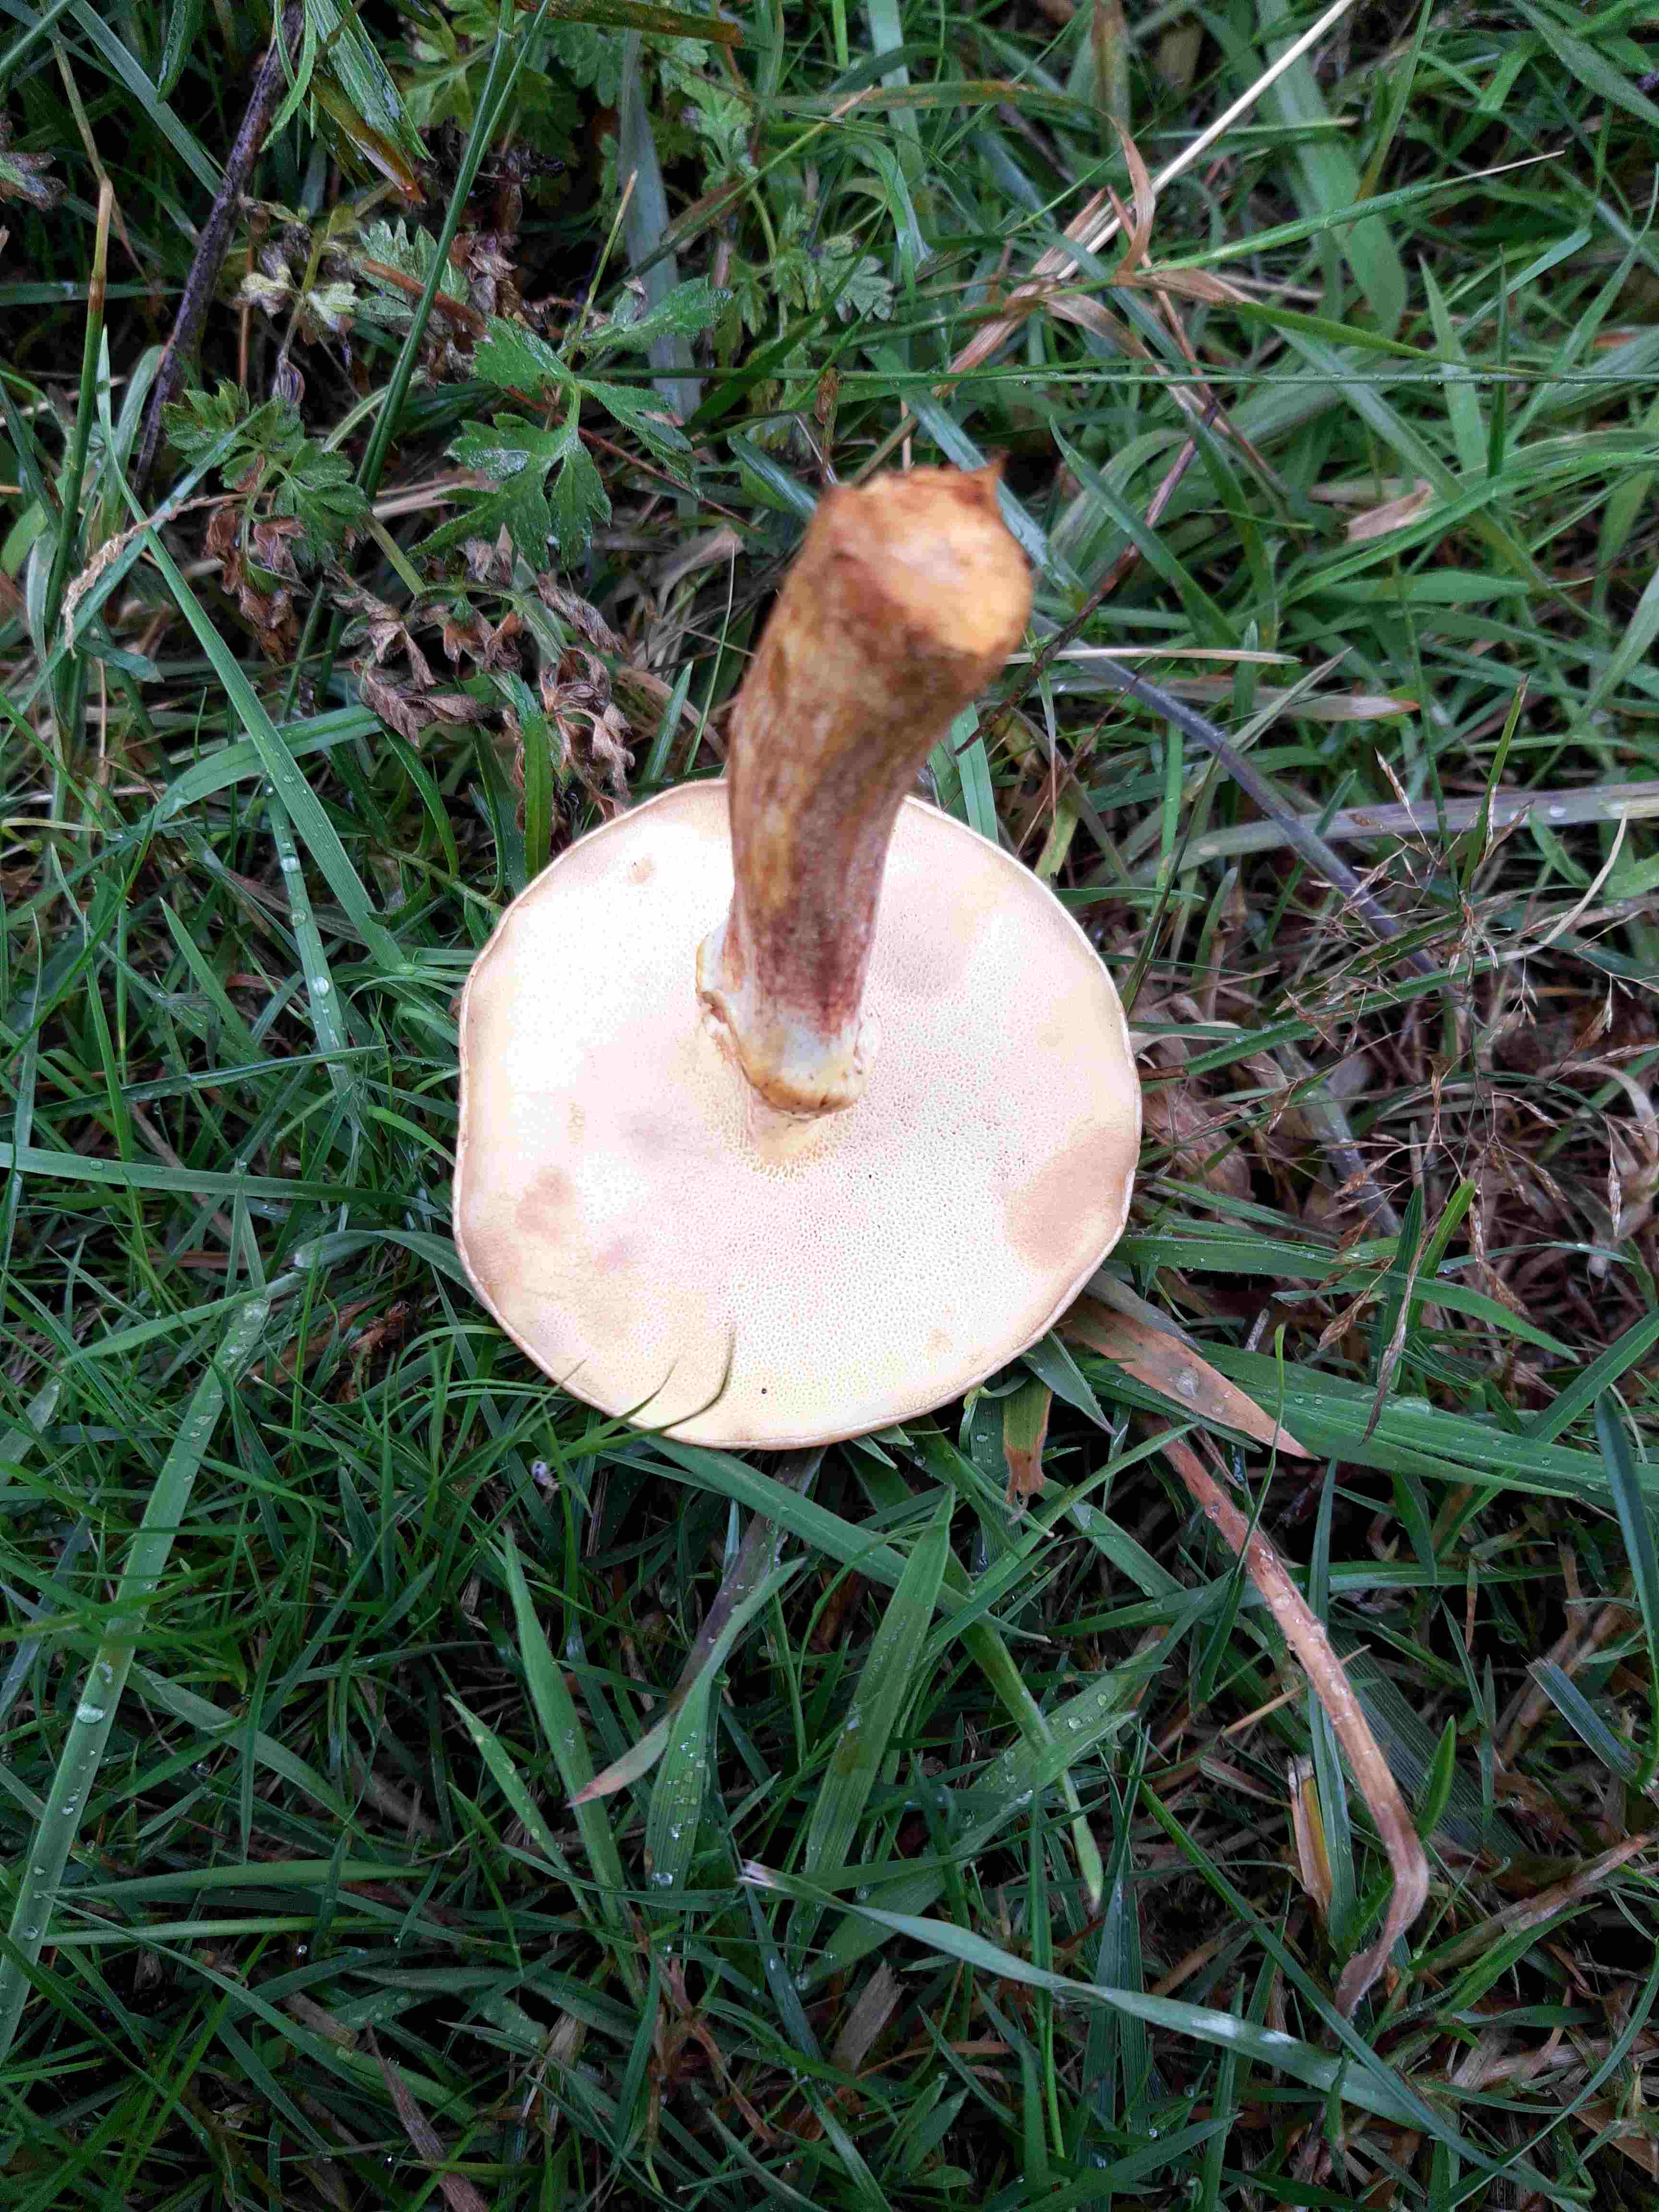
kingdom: Fungi
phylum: Basidiomycota
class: Agaricomycetes
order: Boletales
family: Suillaceae
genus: Suillus
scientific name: Suillus grevillei
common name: lærke-slimrørhat
